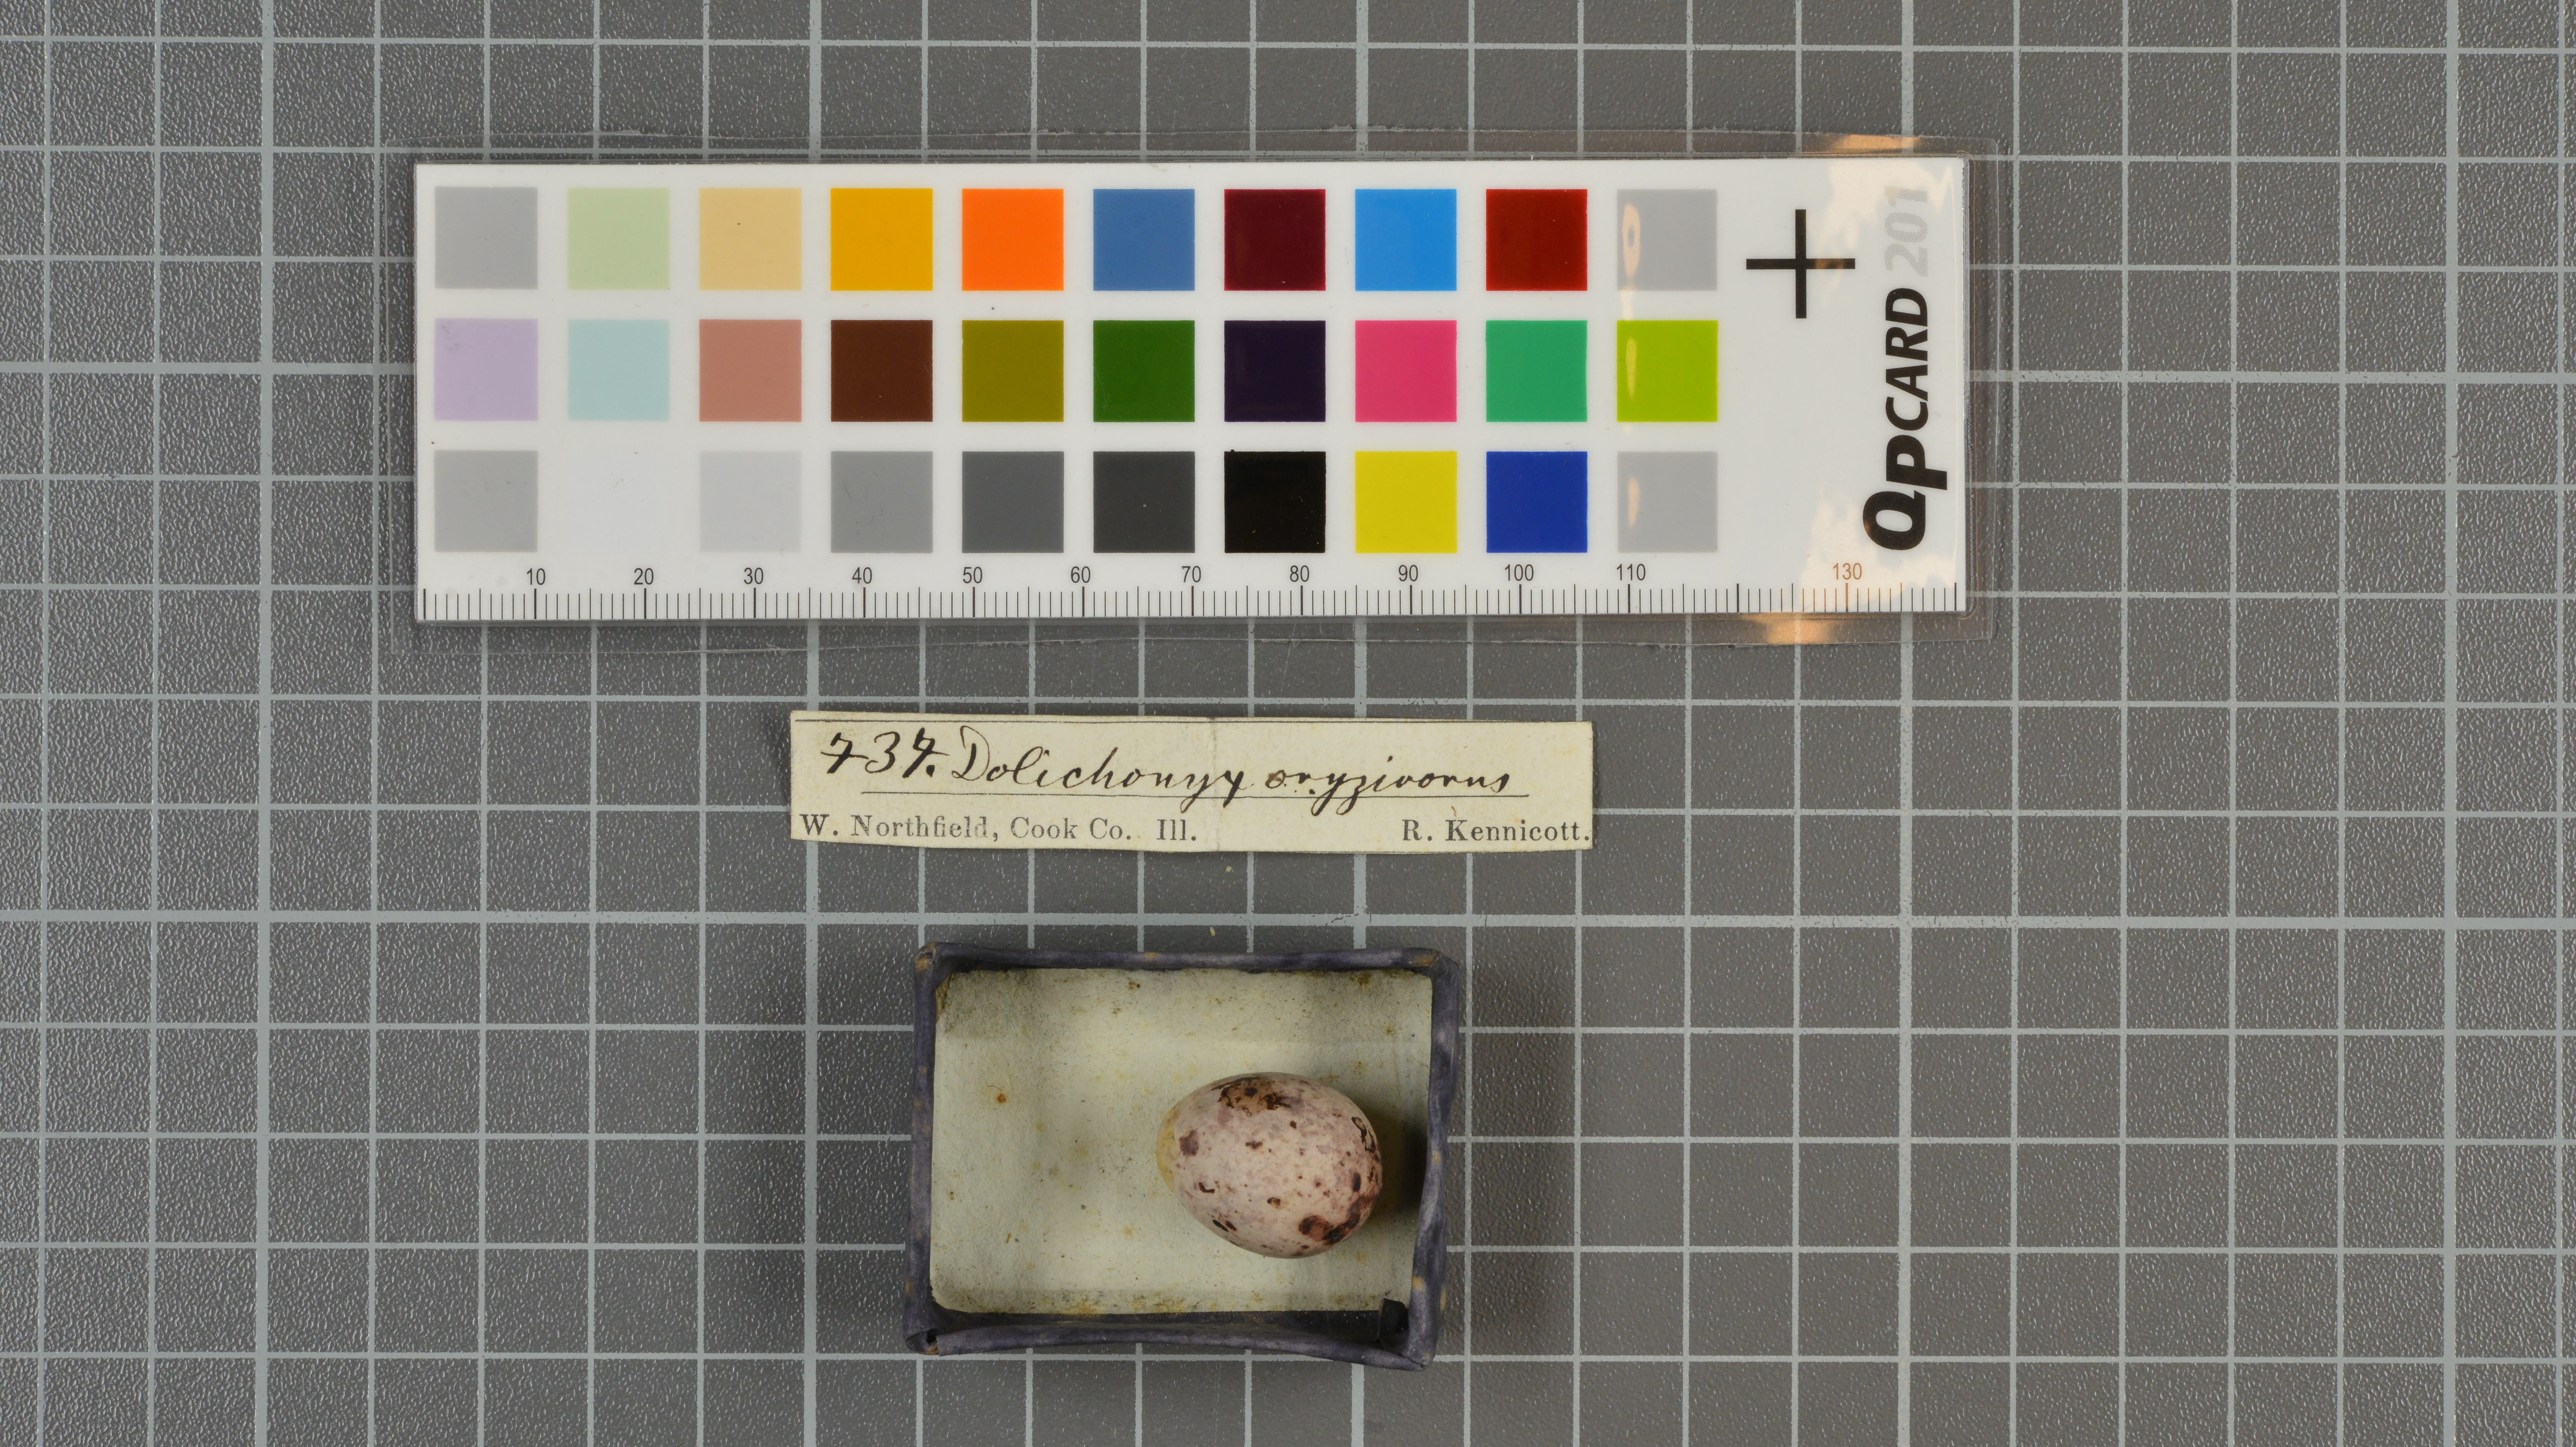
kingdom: Animalia
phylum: Chordata
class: Aves
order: Passeriformes
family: Icteridae
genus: Dolichonyx
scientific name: Dolichonyx oryzivorus
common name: Bobolink
